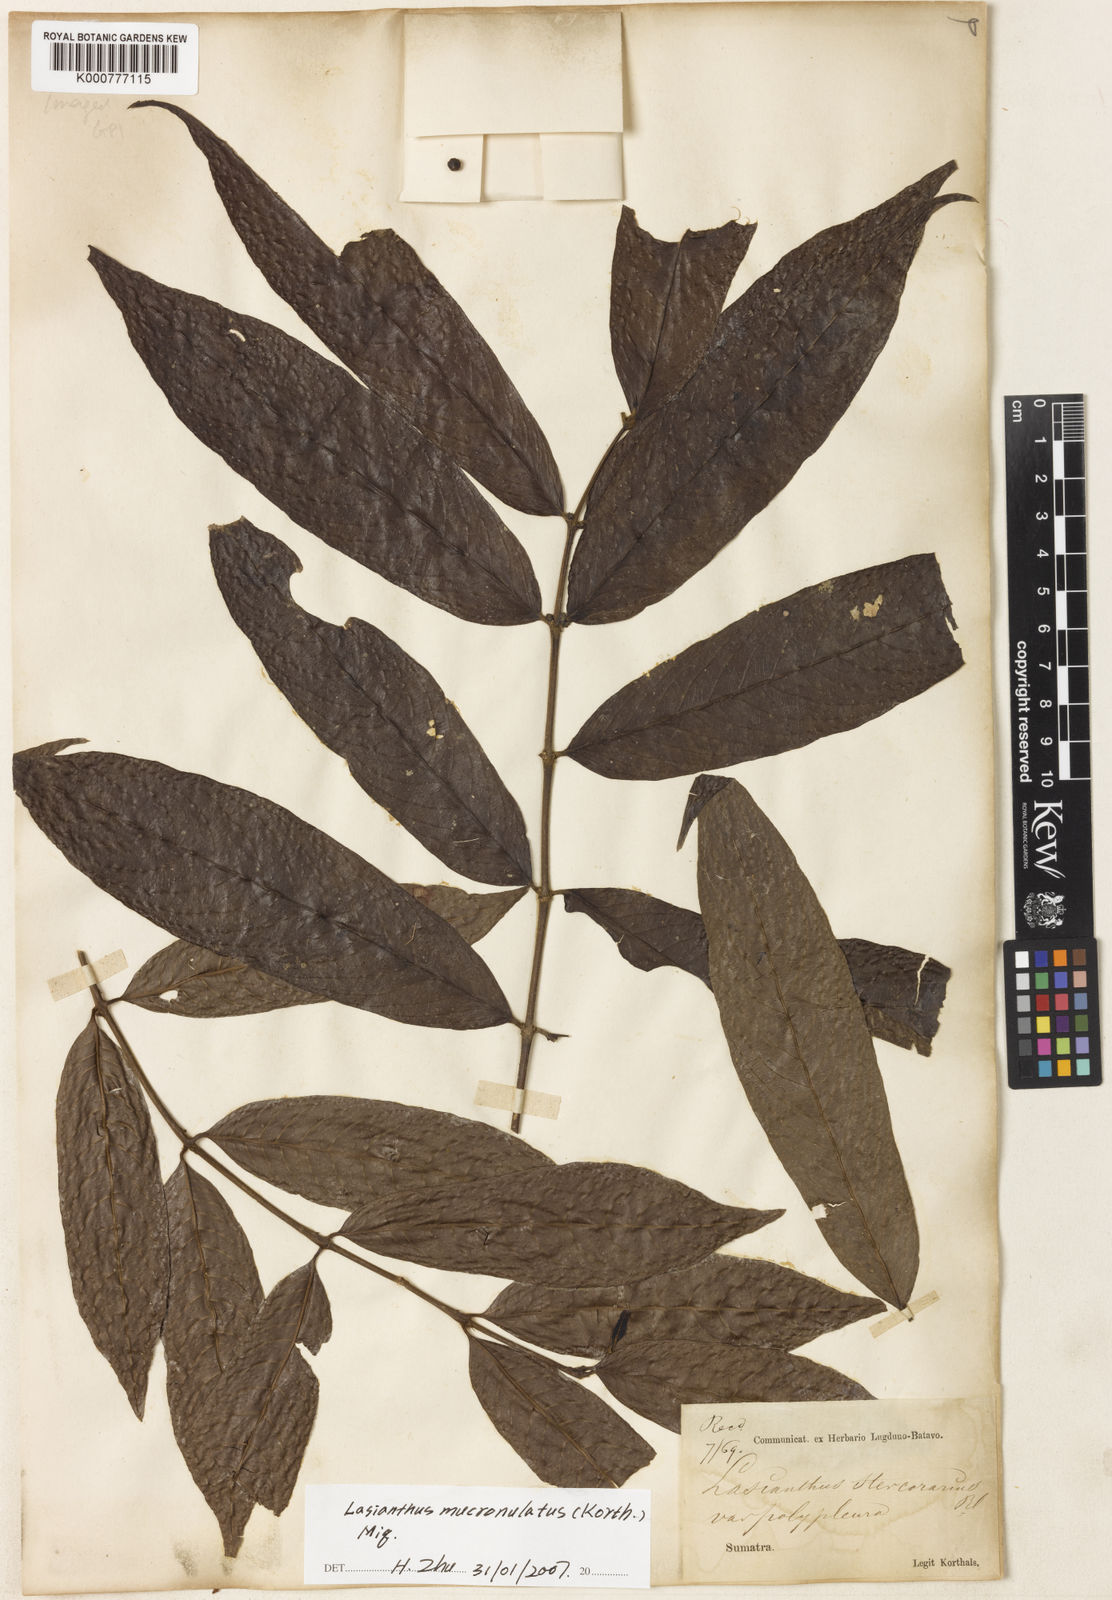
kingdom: Plantae
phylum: Tracheophyta
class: Magnoliopsida
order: Gentianales
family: Rubiaceae
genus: Lasianthus
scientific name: Lasianthus stercorarius
